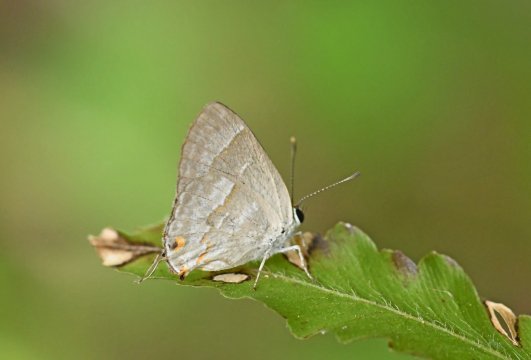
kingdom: Animalia
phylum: Arthropoda
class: Insecta
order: Lepidoptera
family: Lycaenidae
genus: Thecla
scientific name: Thecla yojoa
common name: Yojoa Scrub-Hairstreak
